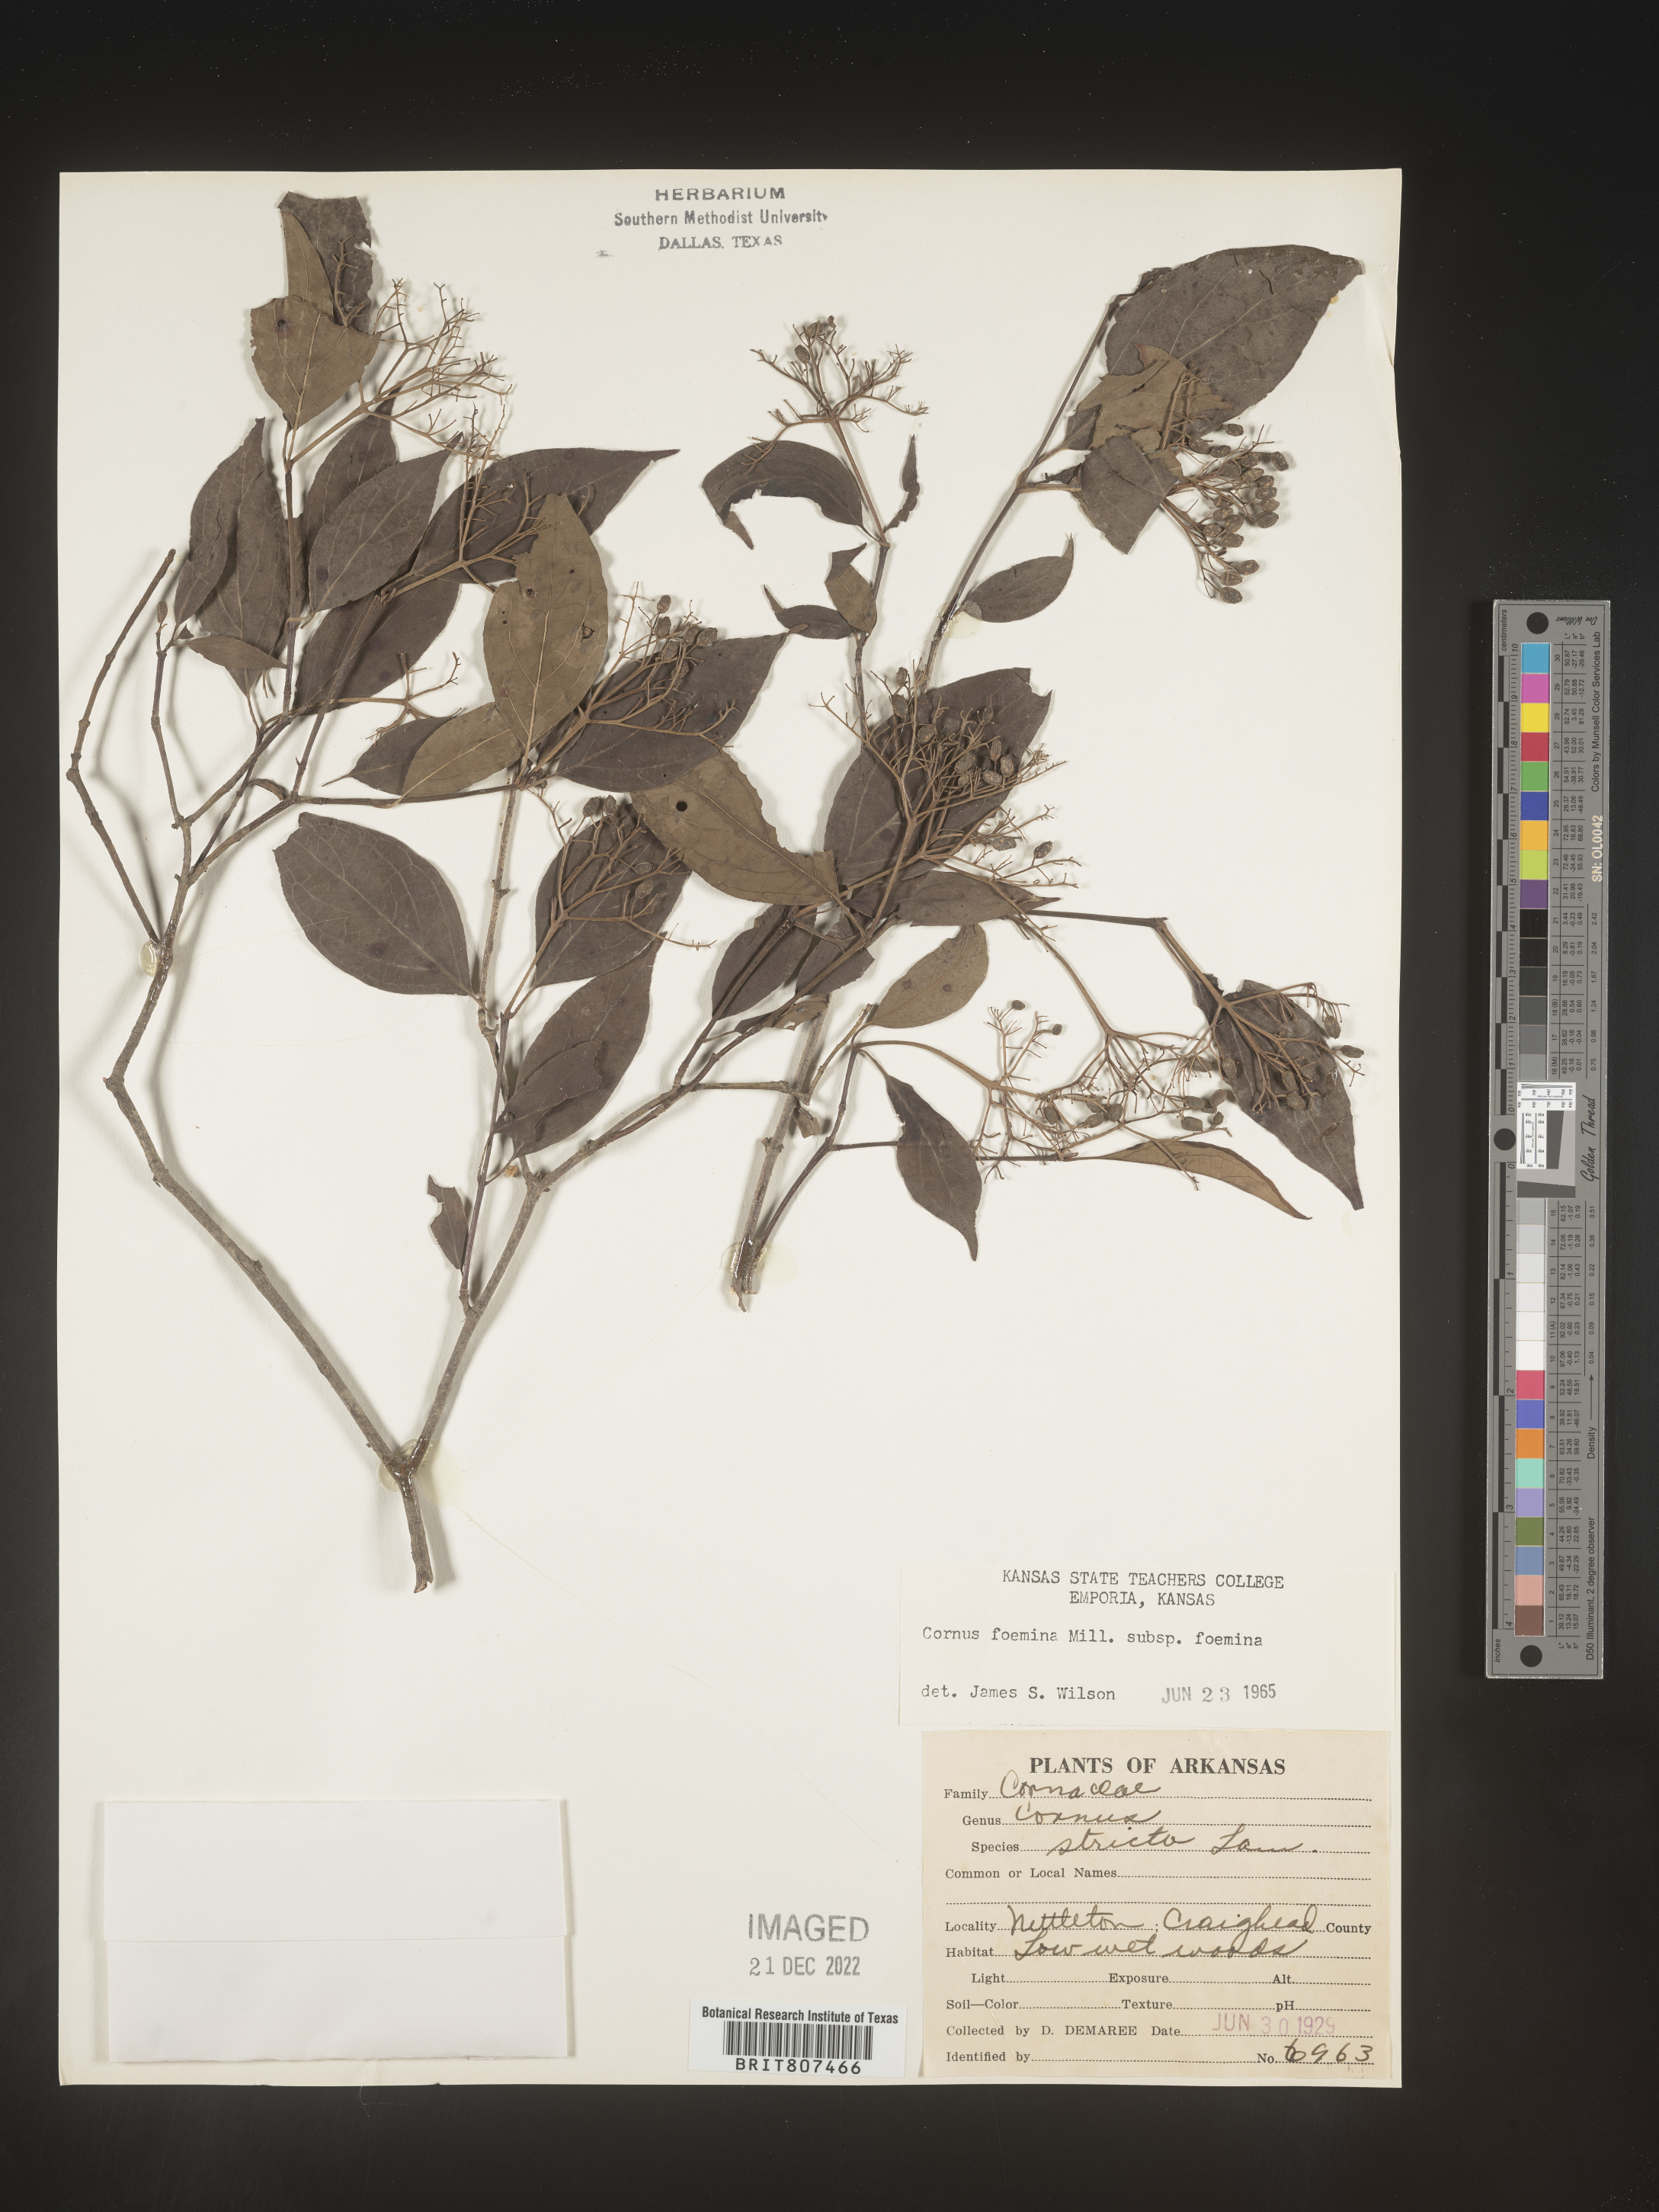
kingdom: Plantae
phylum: Tracheophyta
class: Magnoliopsida
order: Cornales
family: Cornaceae
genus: Cornus
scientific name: Cornus foemina
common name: Swamp dogwood
